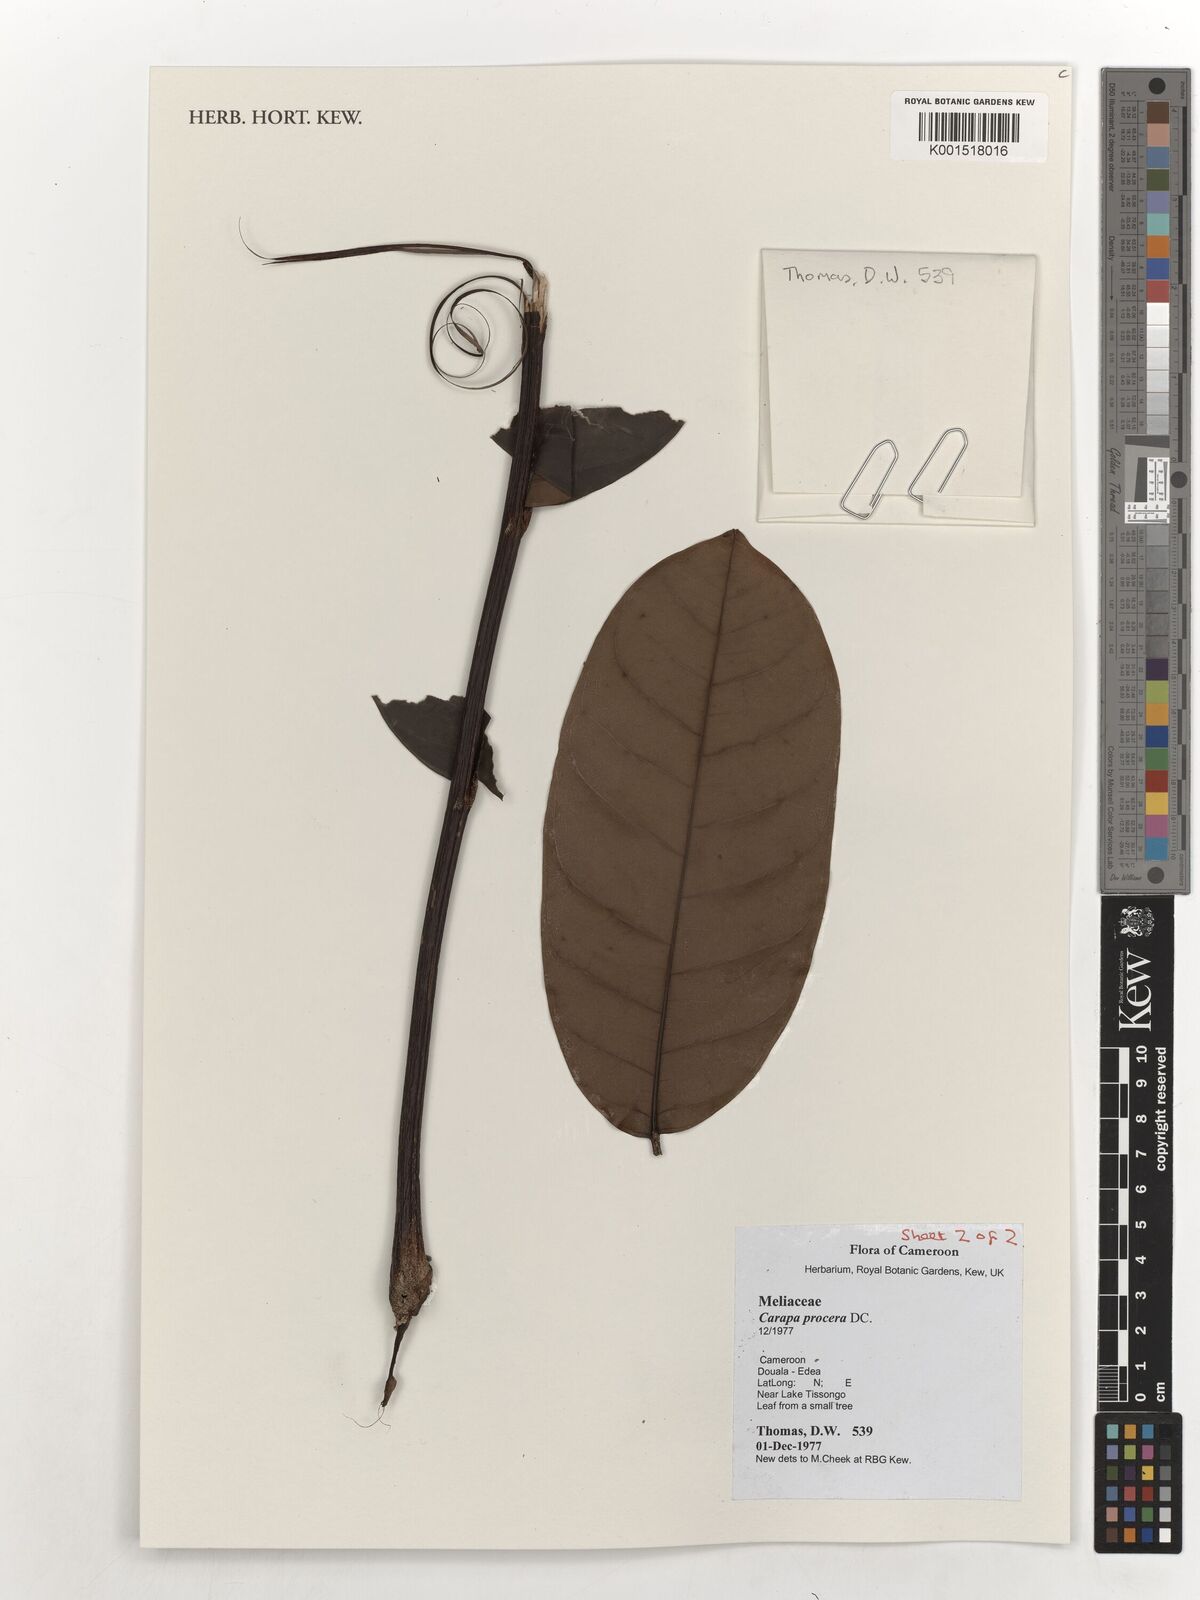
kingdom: Plantae
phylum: Tracheophyta
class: Magnoliopsida
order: Sapindales
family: Meliaceae
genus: Carapa
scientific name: Carapa procera
